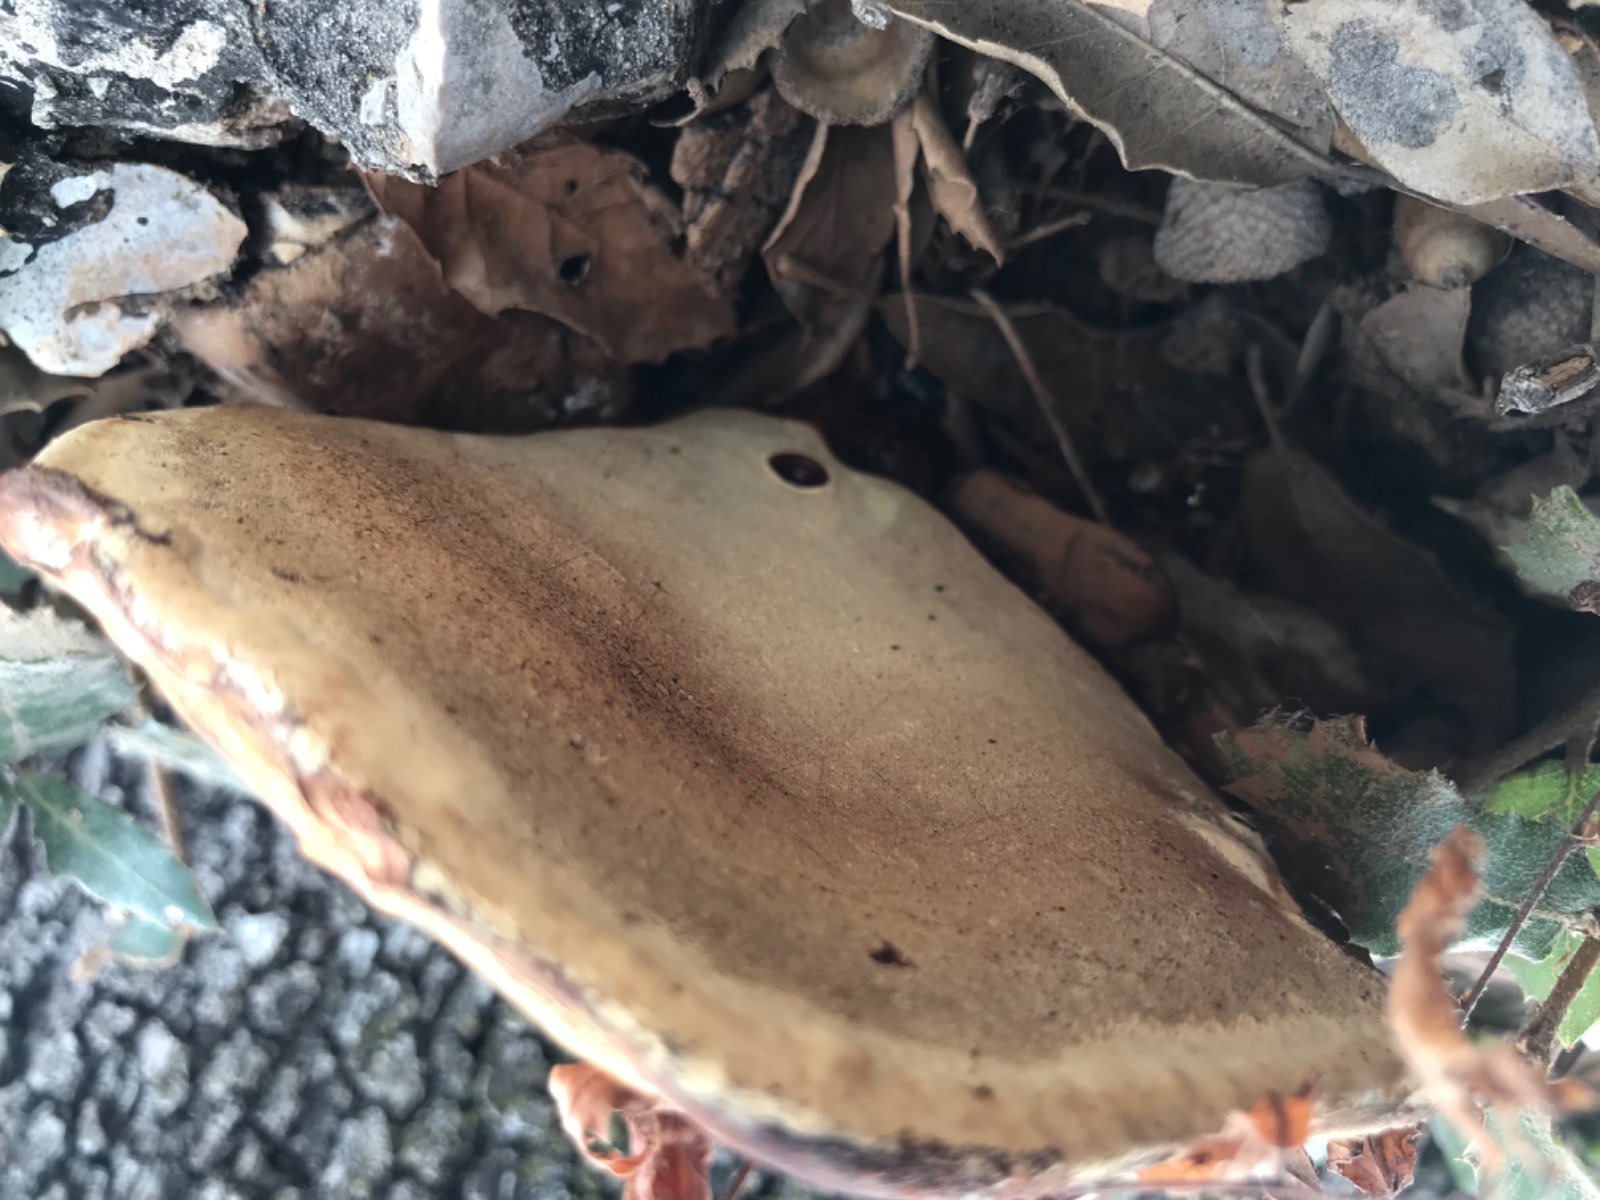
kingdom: Fungi
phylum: Basidiomycota
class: Agaricomycetes
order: Polyporales
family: Polyporaceae
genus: Ganoderma
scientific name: Ganoderma
